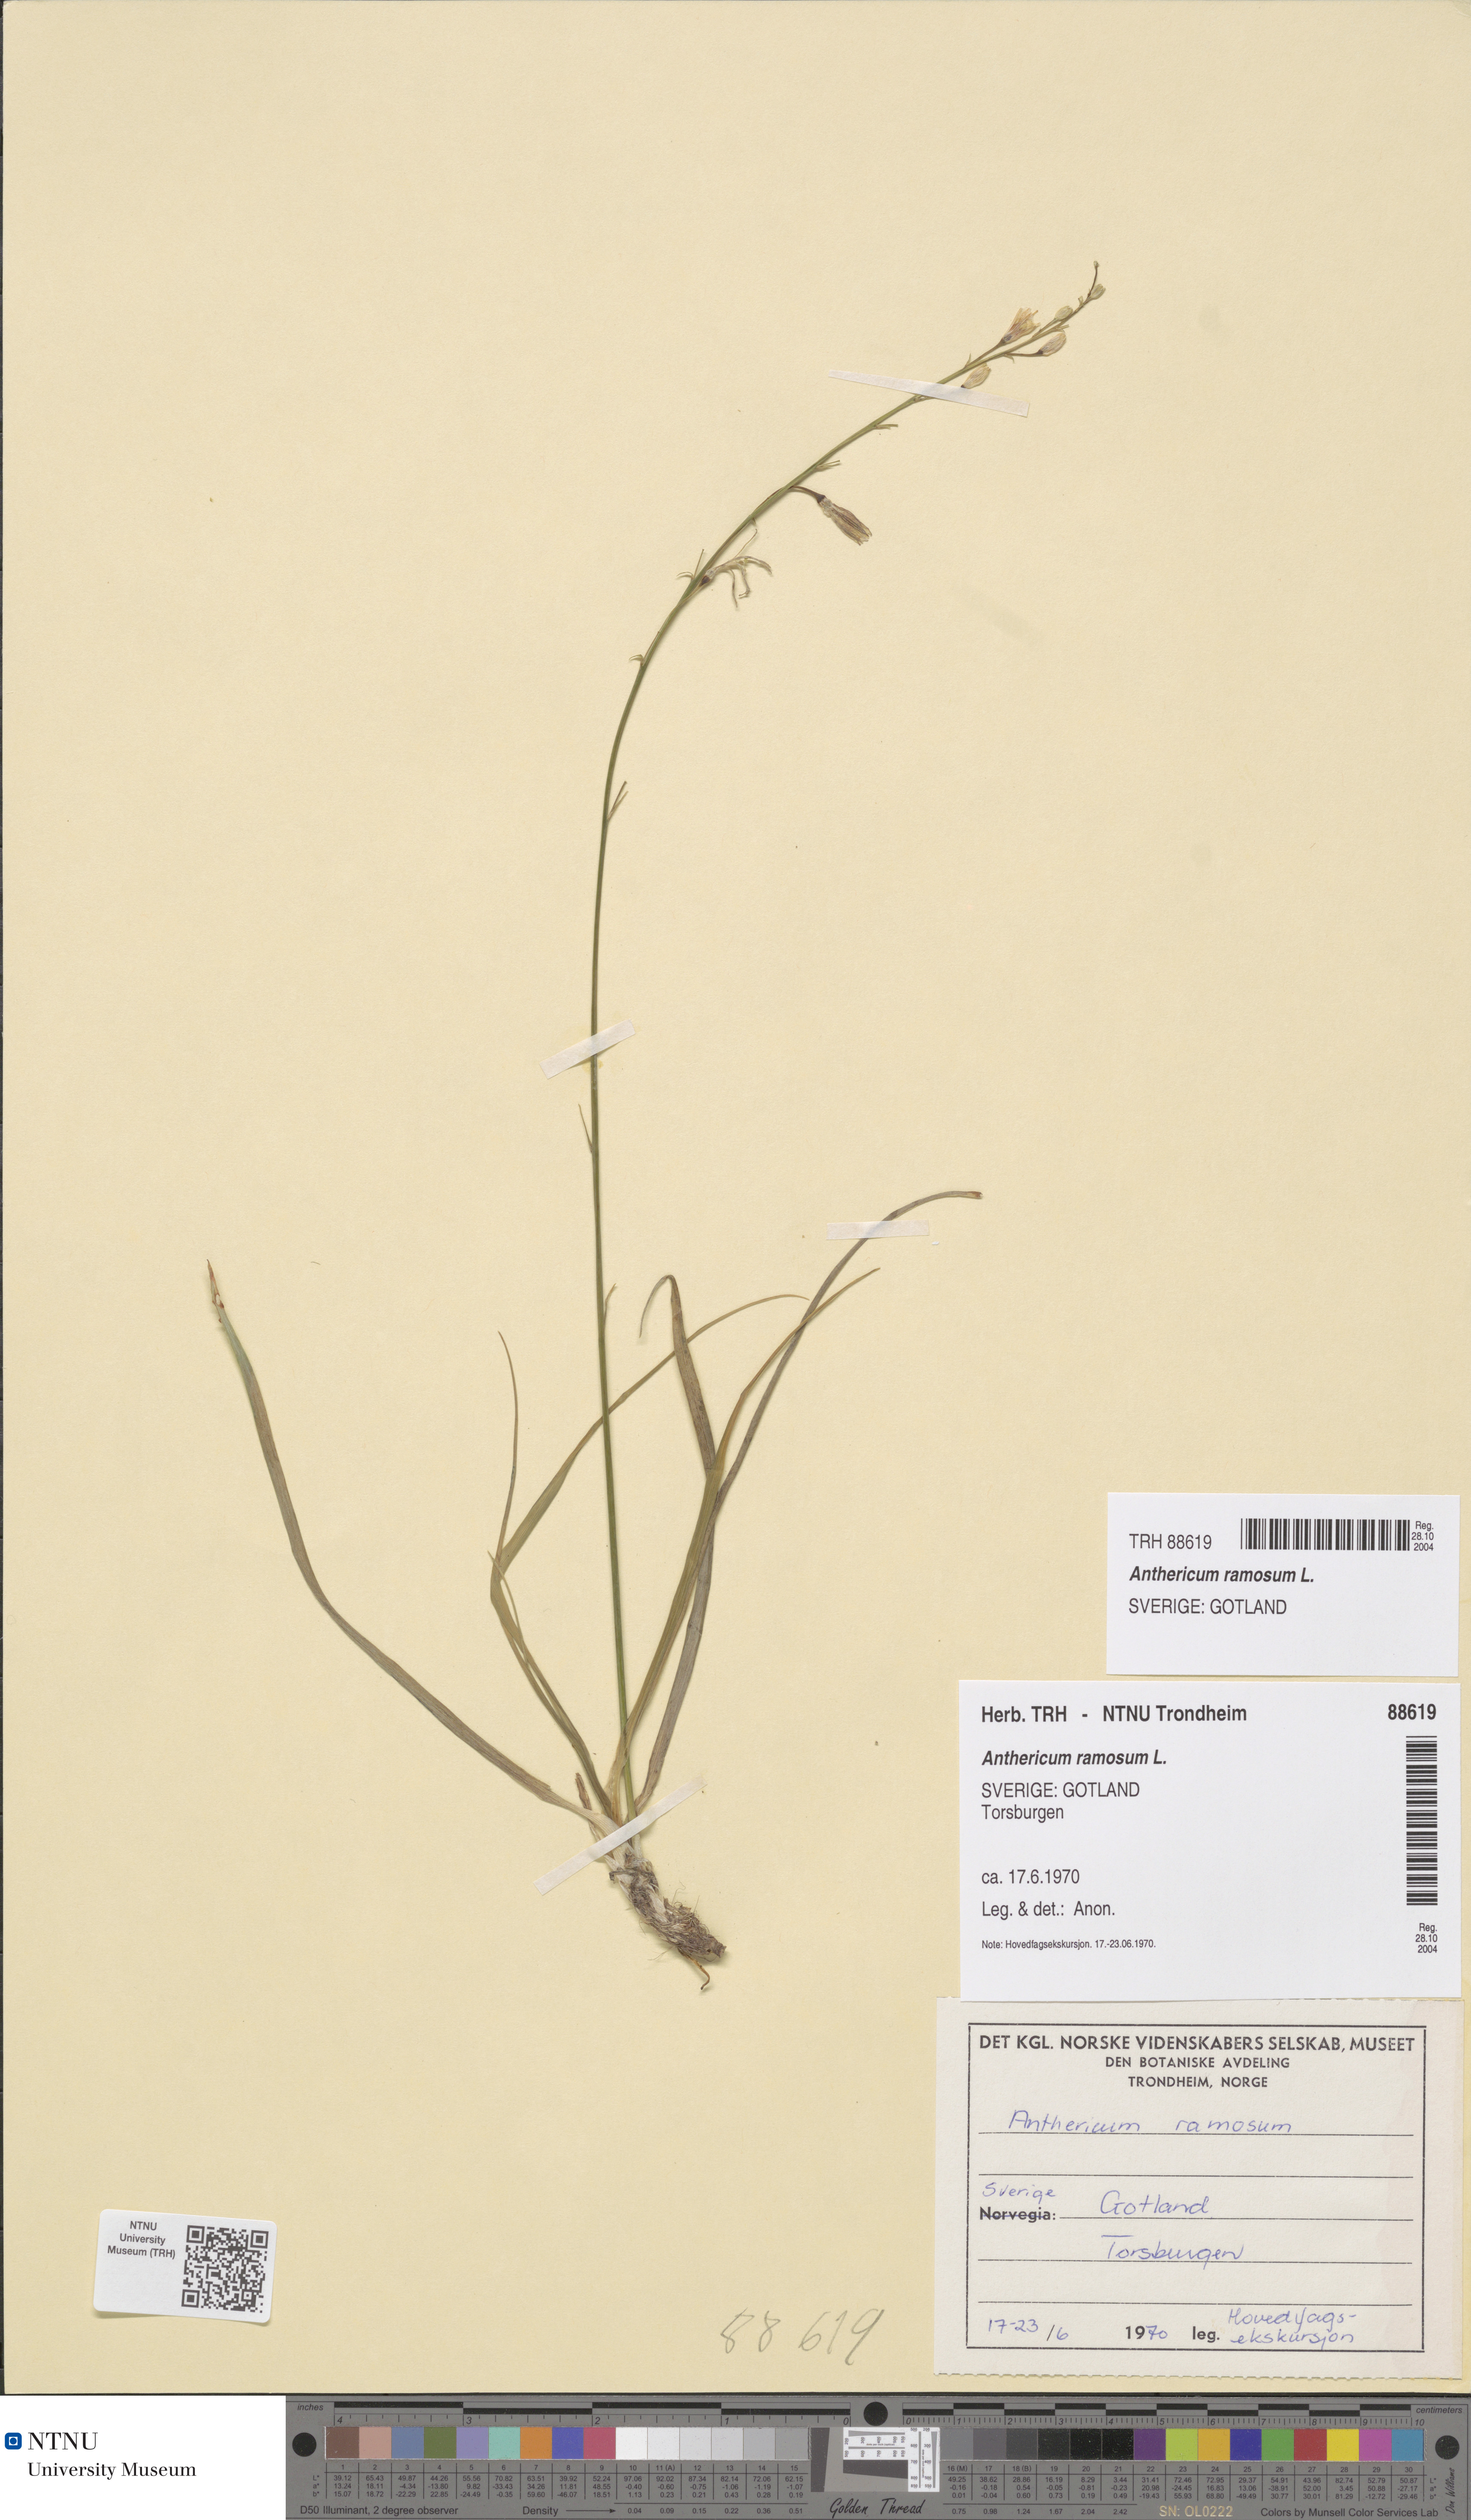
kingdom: Plantae
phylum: Tracheophyta
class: Liliopsida
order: Asparagales
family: Asparagaceae
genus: Anthericum
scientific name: Anthericum ramosum
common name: Branched st. bernard's-lily
